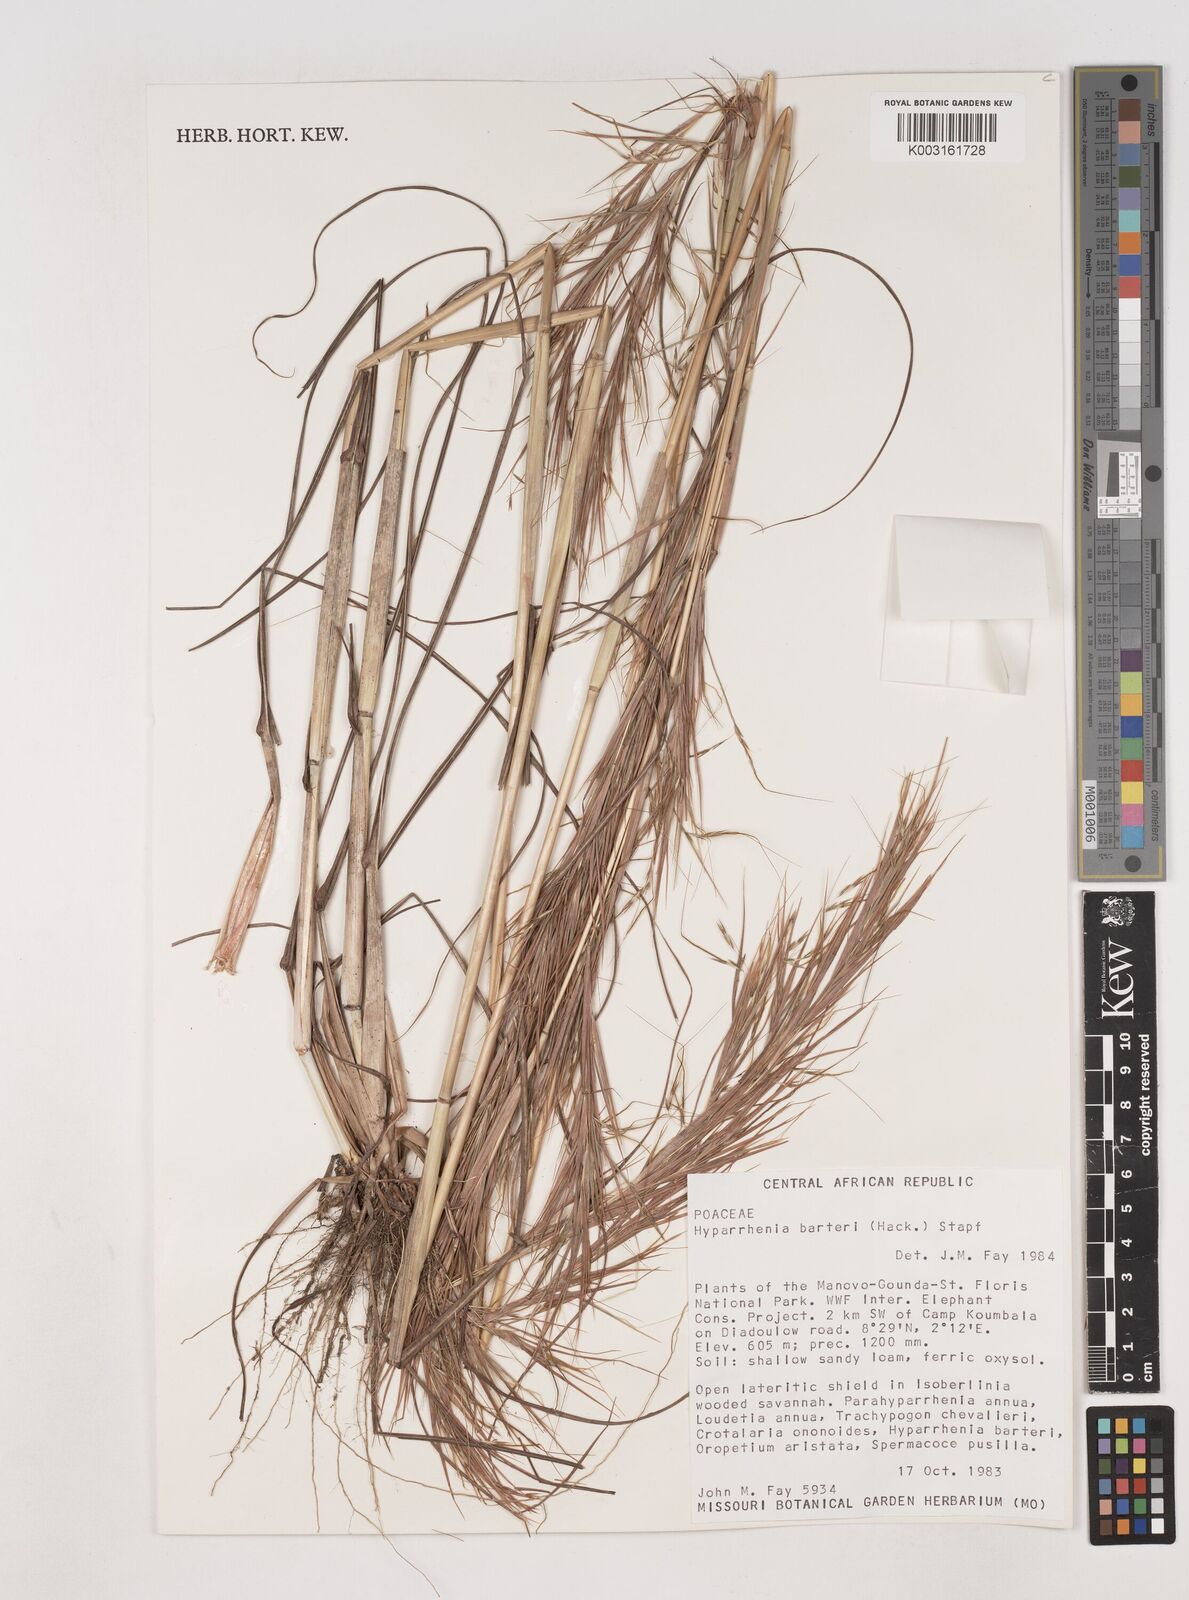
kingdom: Plantae
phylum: Tracheophyta
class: Liliopsida
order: Poales
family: Poaceae
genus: Hyparrhenia
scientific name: Hyparrhenia barteri
